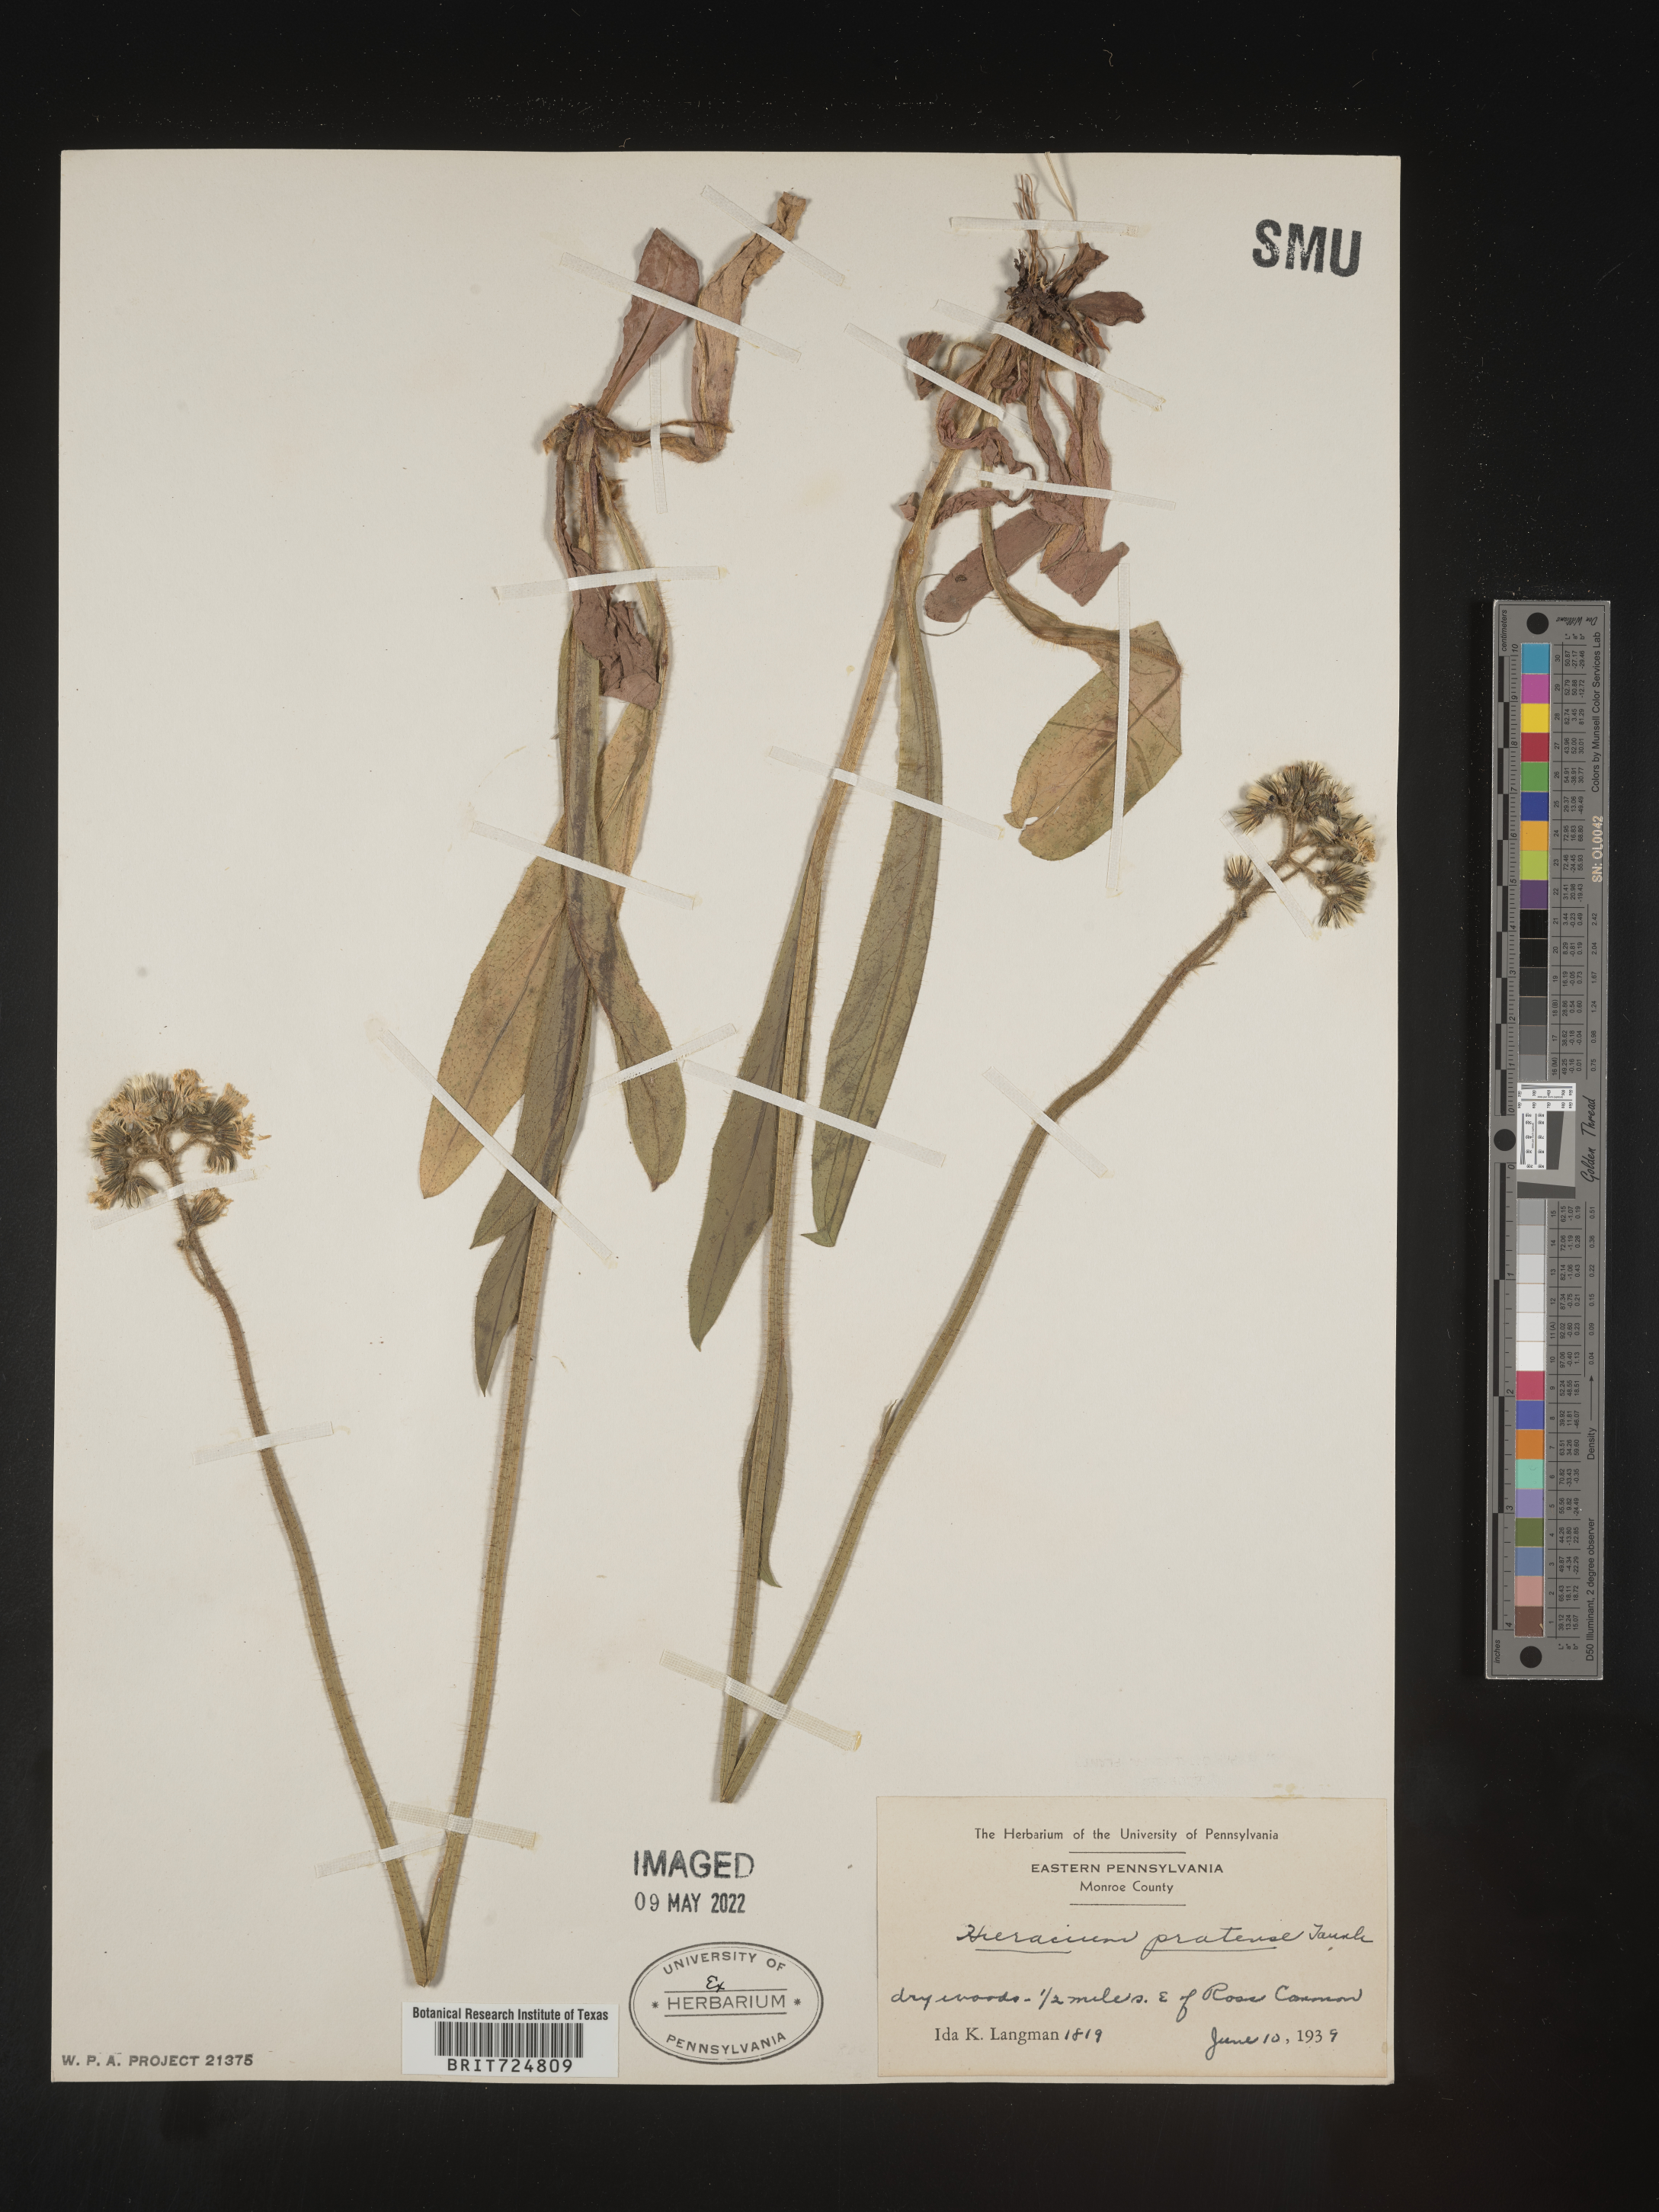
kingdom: Plantae
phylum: Tracheophyta
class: Magnoliopsida
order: Asterales
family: Asteraceae
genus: Hieracium
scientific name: Hieracium
